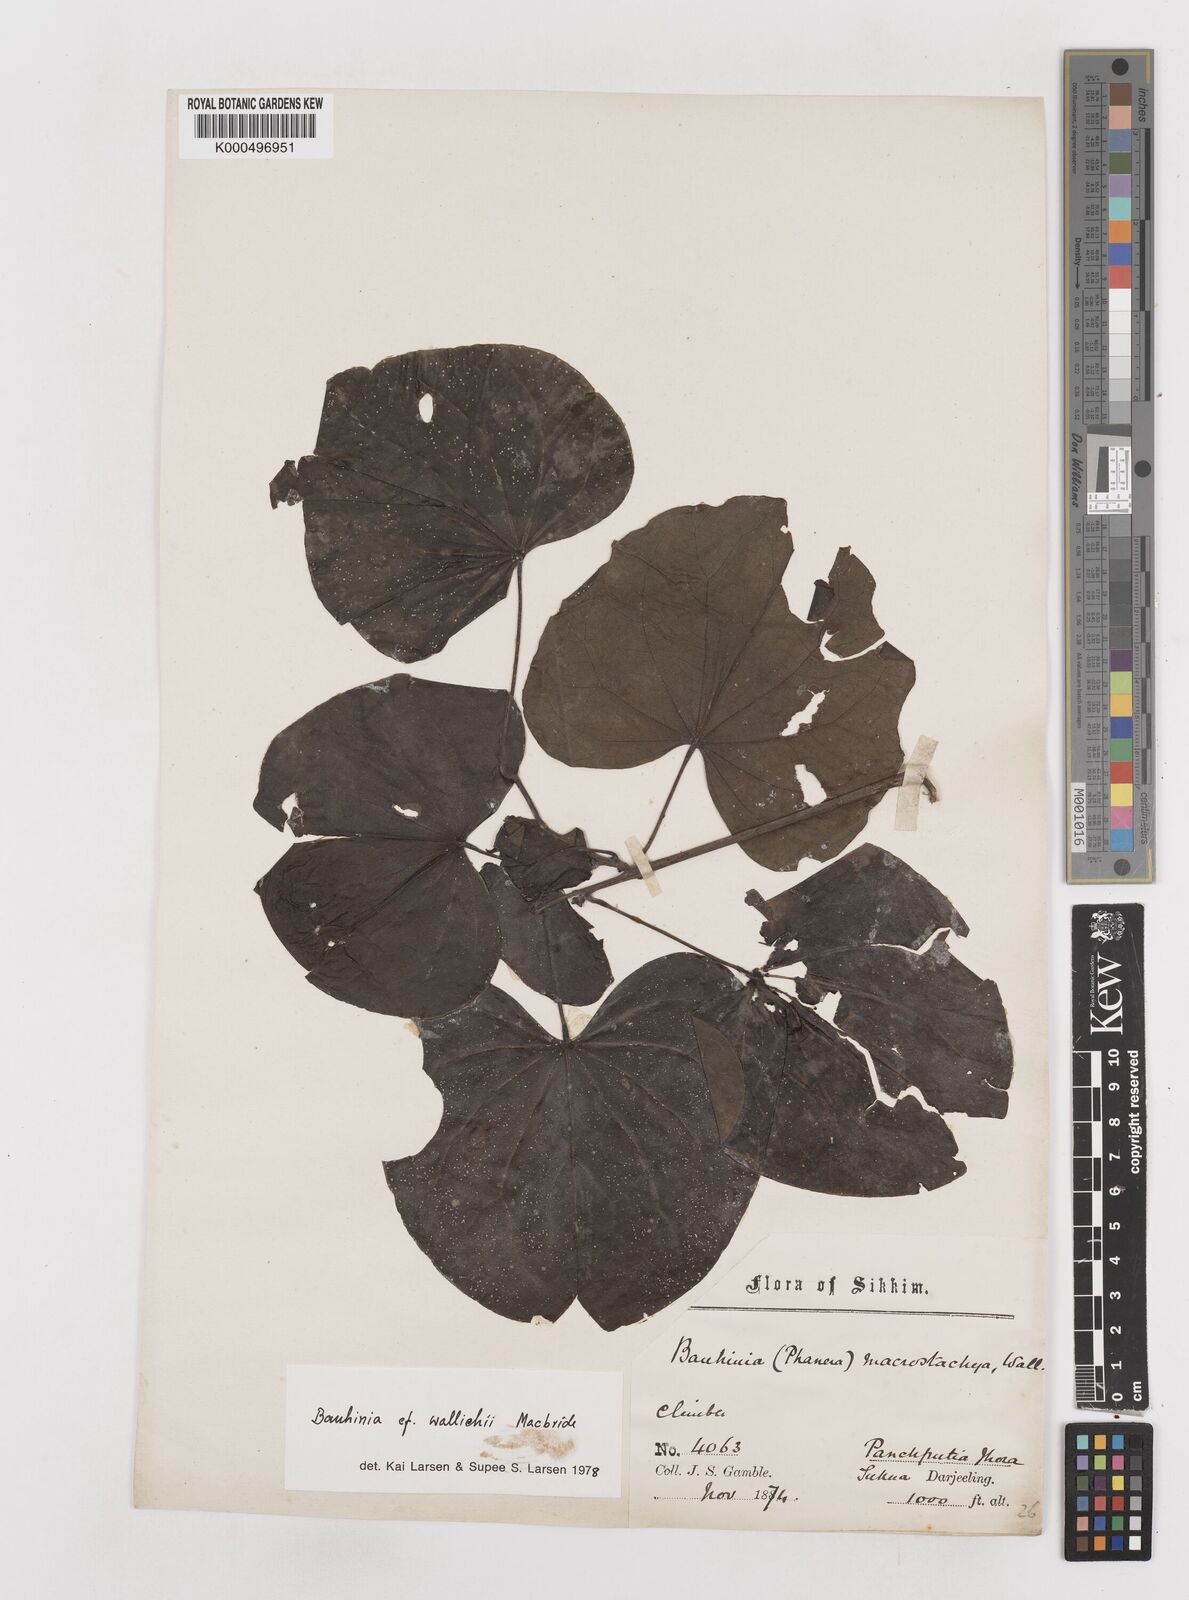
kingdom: Plantae
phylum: Tracheophyta
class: Magnoliopsida
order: Fabales
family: Fabaceae
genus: Phanera
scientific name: Phanera macrostachya
